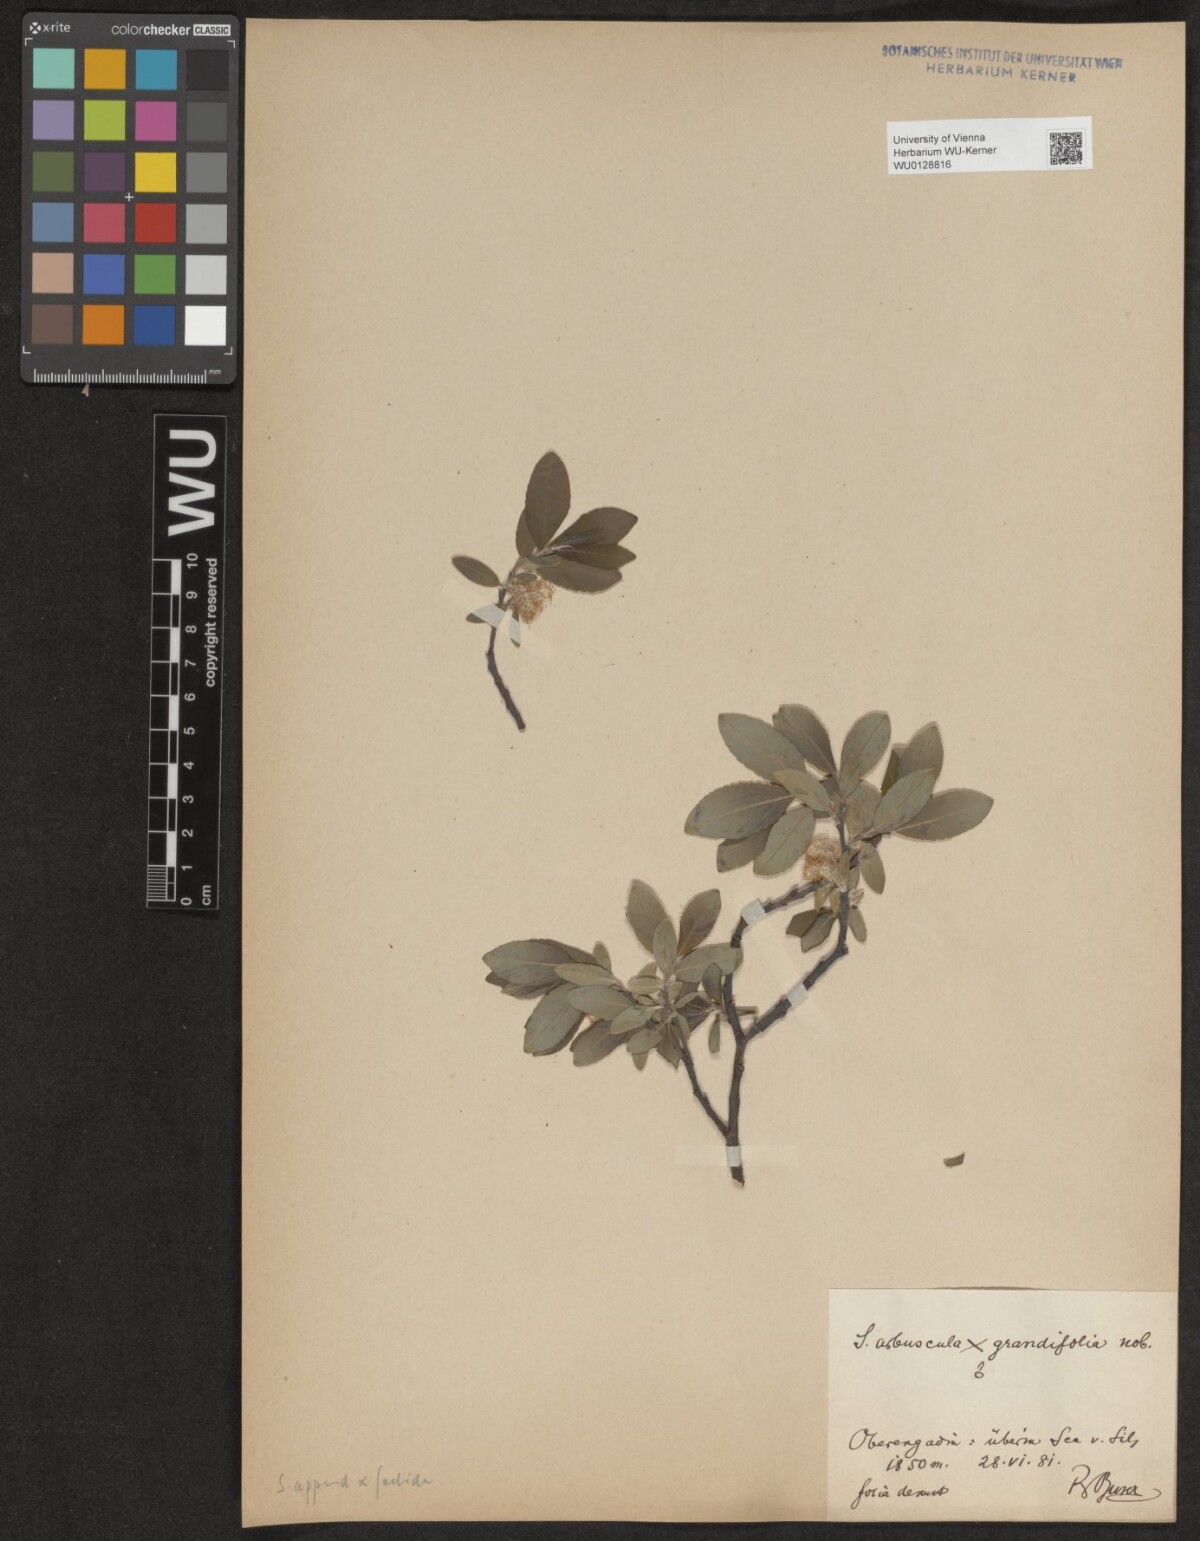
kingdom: Plantae
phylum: Tracheophyta
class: Magnoliopsida
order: Malpighiales
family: Salicaceae
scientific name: Salicaceae
